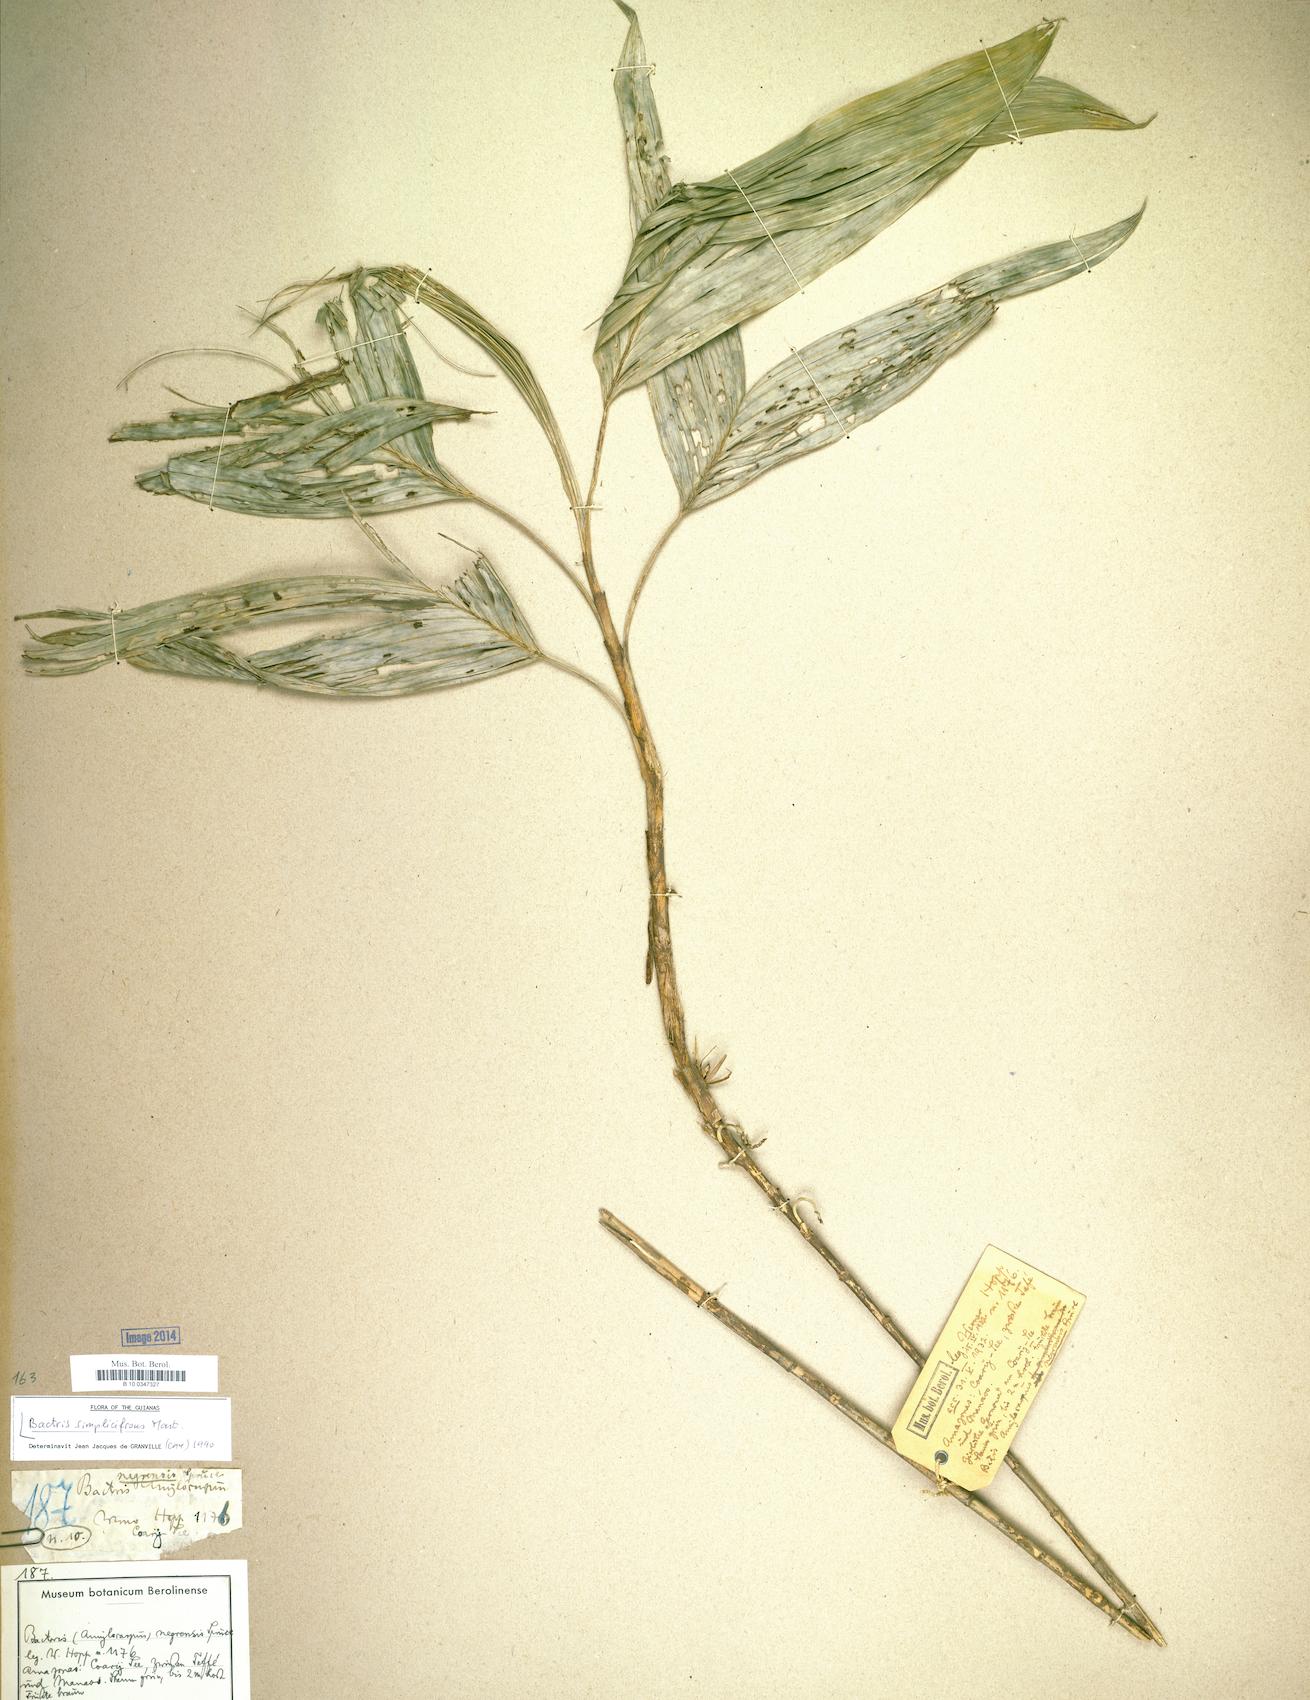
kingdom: Plantae
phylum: Tracheophyta
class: Liliopsida
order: Arecales
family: Arecaceae
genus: Bactris
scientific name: Bactris simplicifrons
